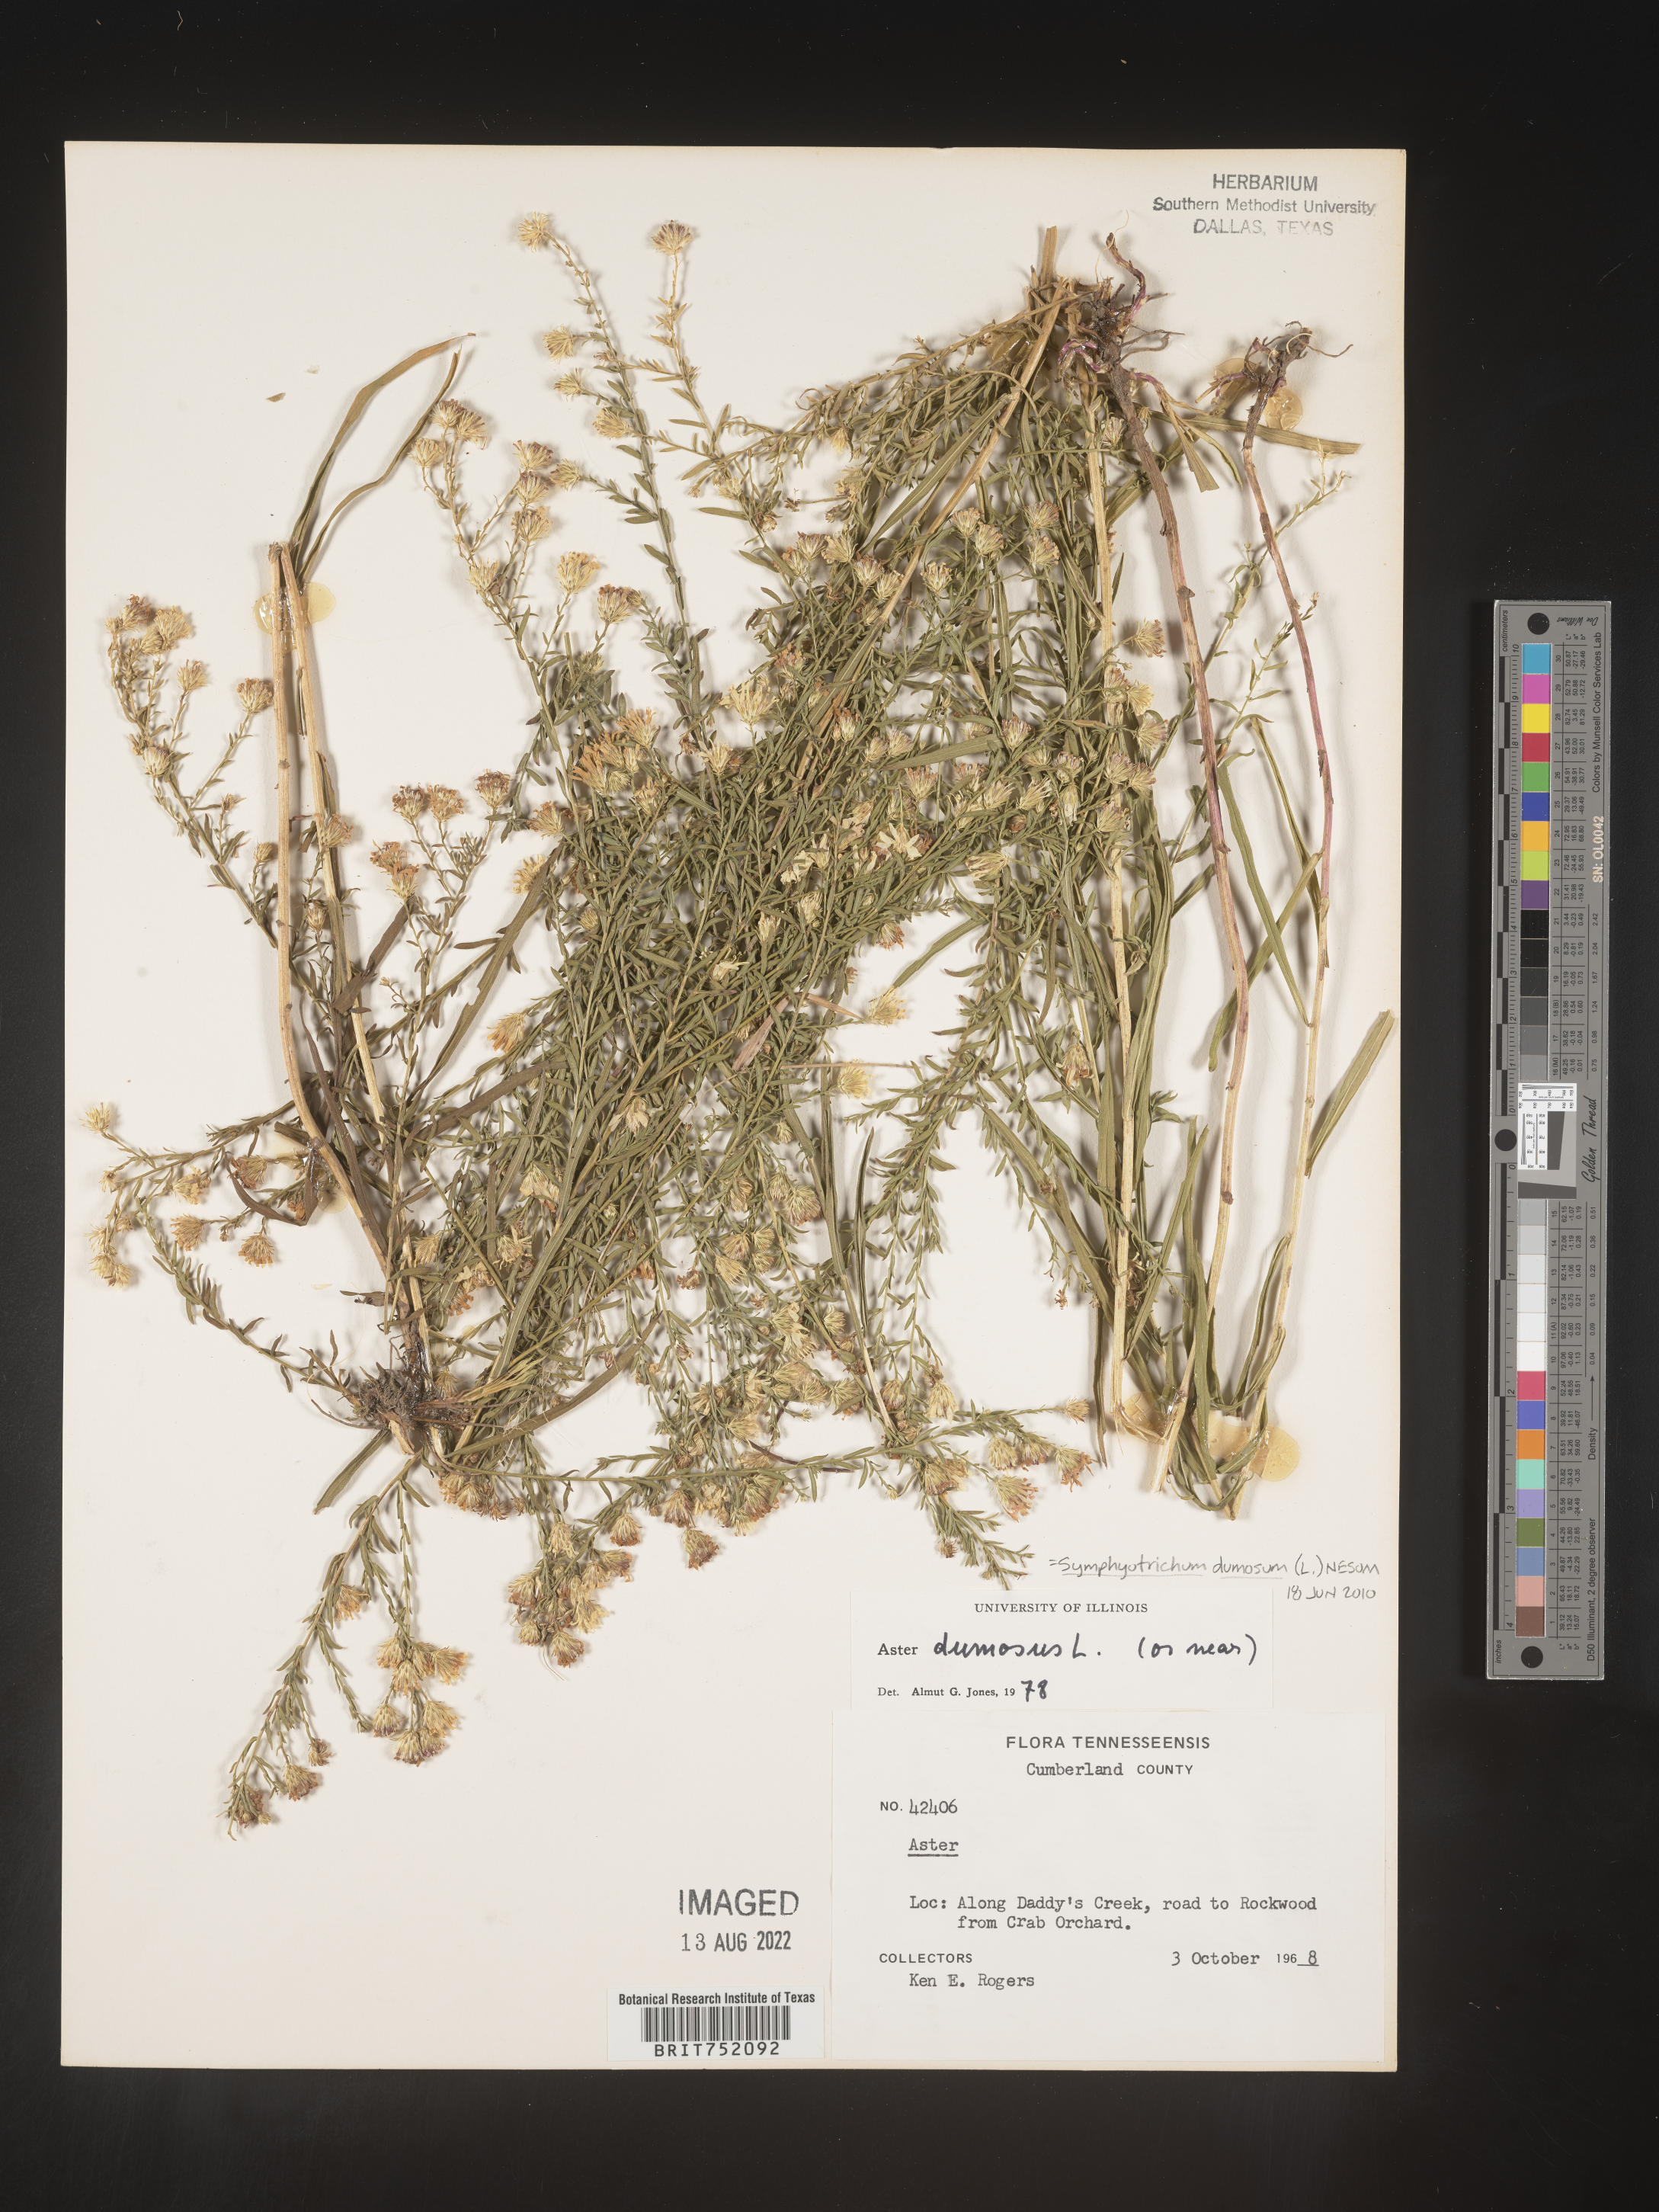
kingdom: Plantae
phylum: Tracheophyta
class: Magnoliopsida
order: Asterales
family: Asteraceae
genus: Symphyotrichum
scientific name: Symphyotrichum dumosum
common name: Bushy aster
